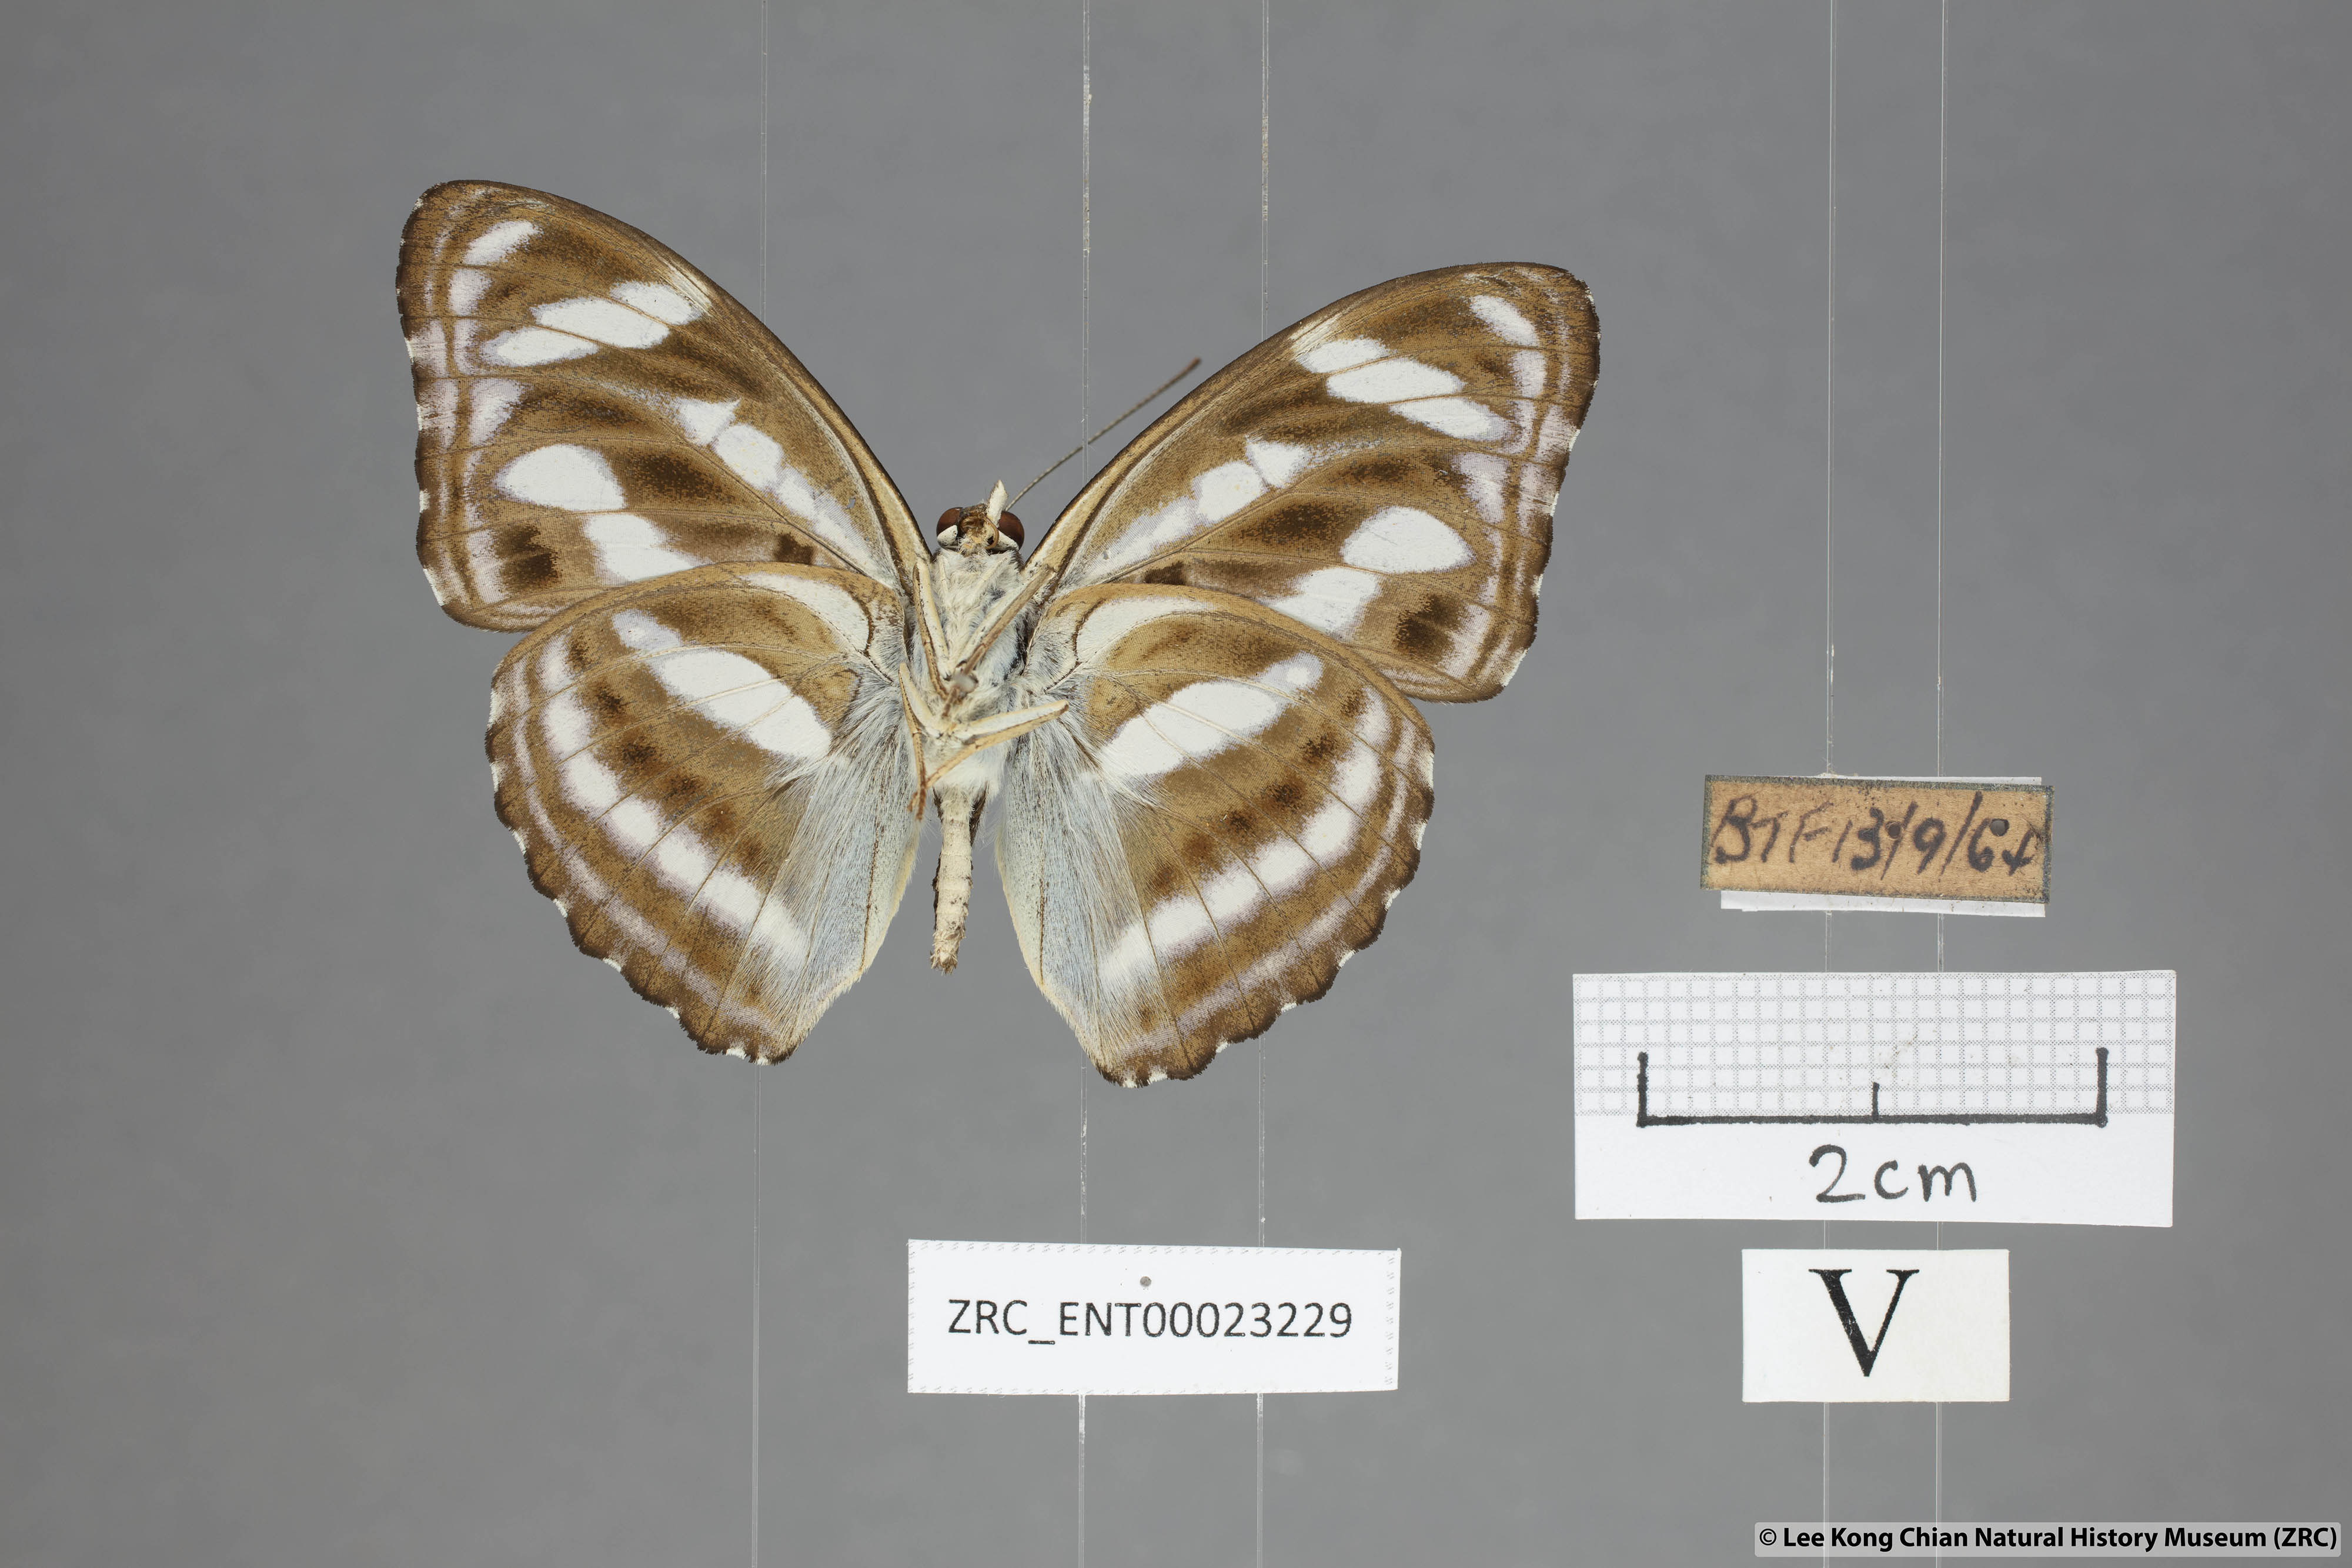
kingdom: Animalia
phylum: Arthropoda
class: Insecta
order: Lepidoptera
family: Nymphalidae
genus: Parathyma
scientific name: Parathyma nefte
